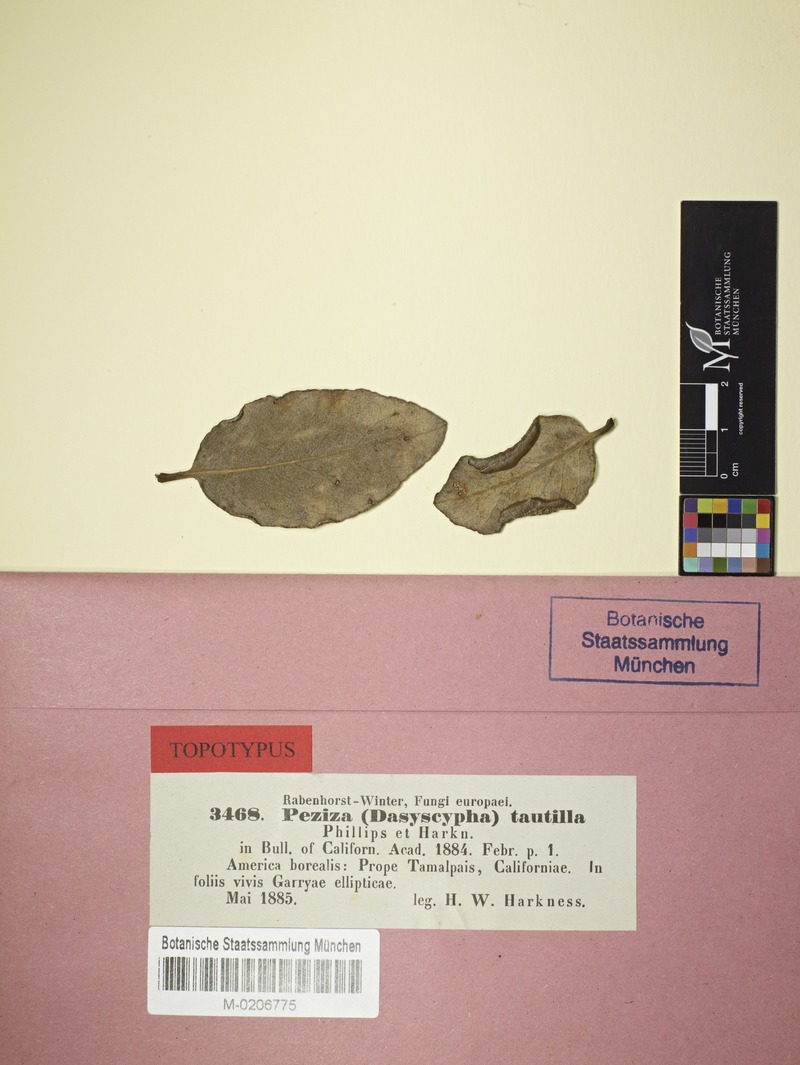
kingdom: Plantae
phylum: Tracheophyta
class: Magnoliopsida
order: Garryales
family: Garryaceae
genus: Garrya
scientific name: Garrya elliptica
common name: Silk-tassel
